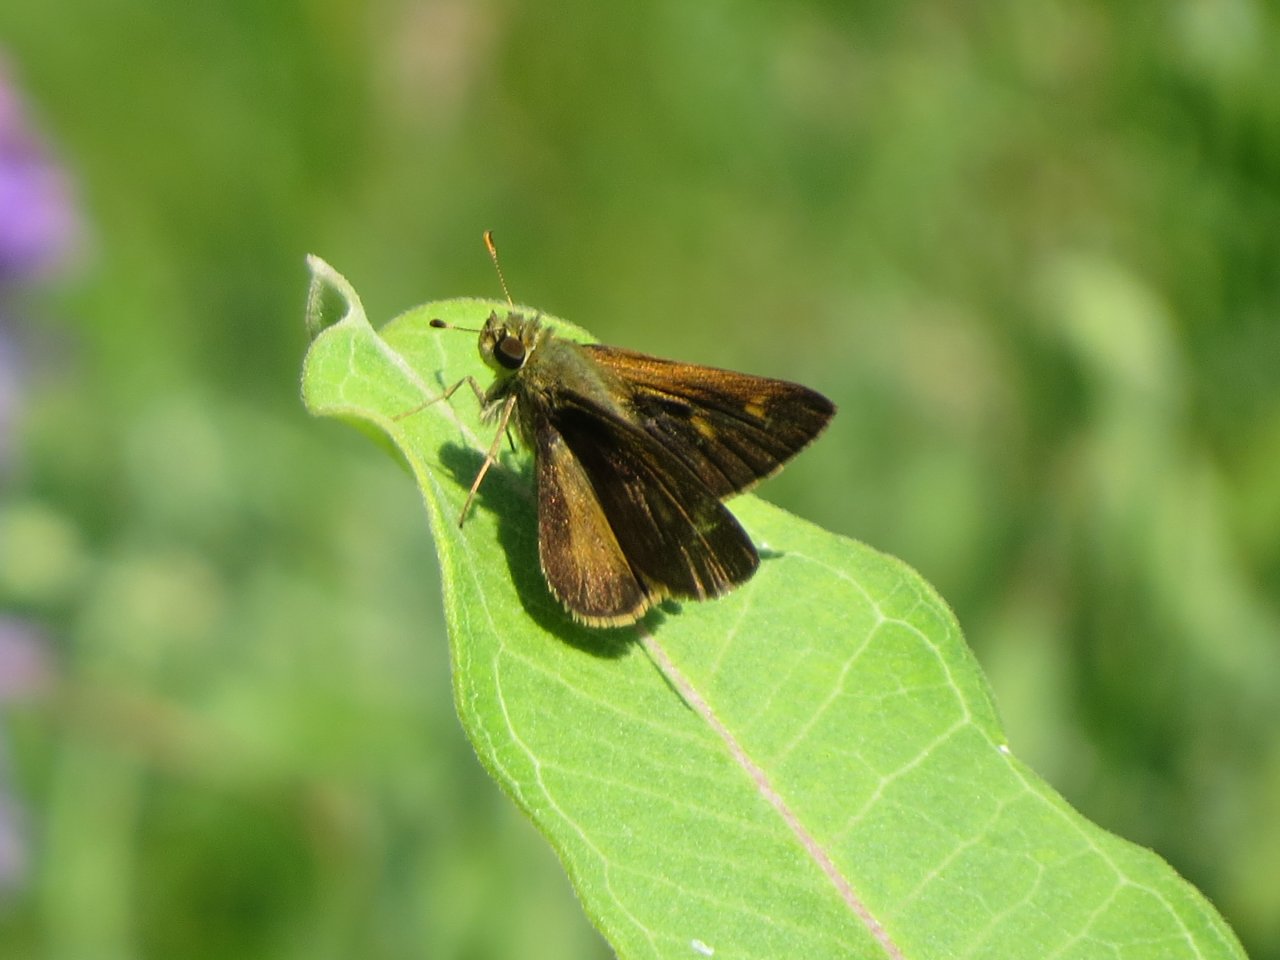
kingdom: Animalia
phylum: Arthropoda
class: Insecta
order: Lepidoptera
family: Hesperiidae
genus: Polites
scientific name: Polites egeremet
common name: Northern Broken-Dash
